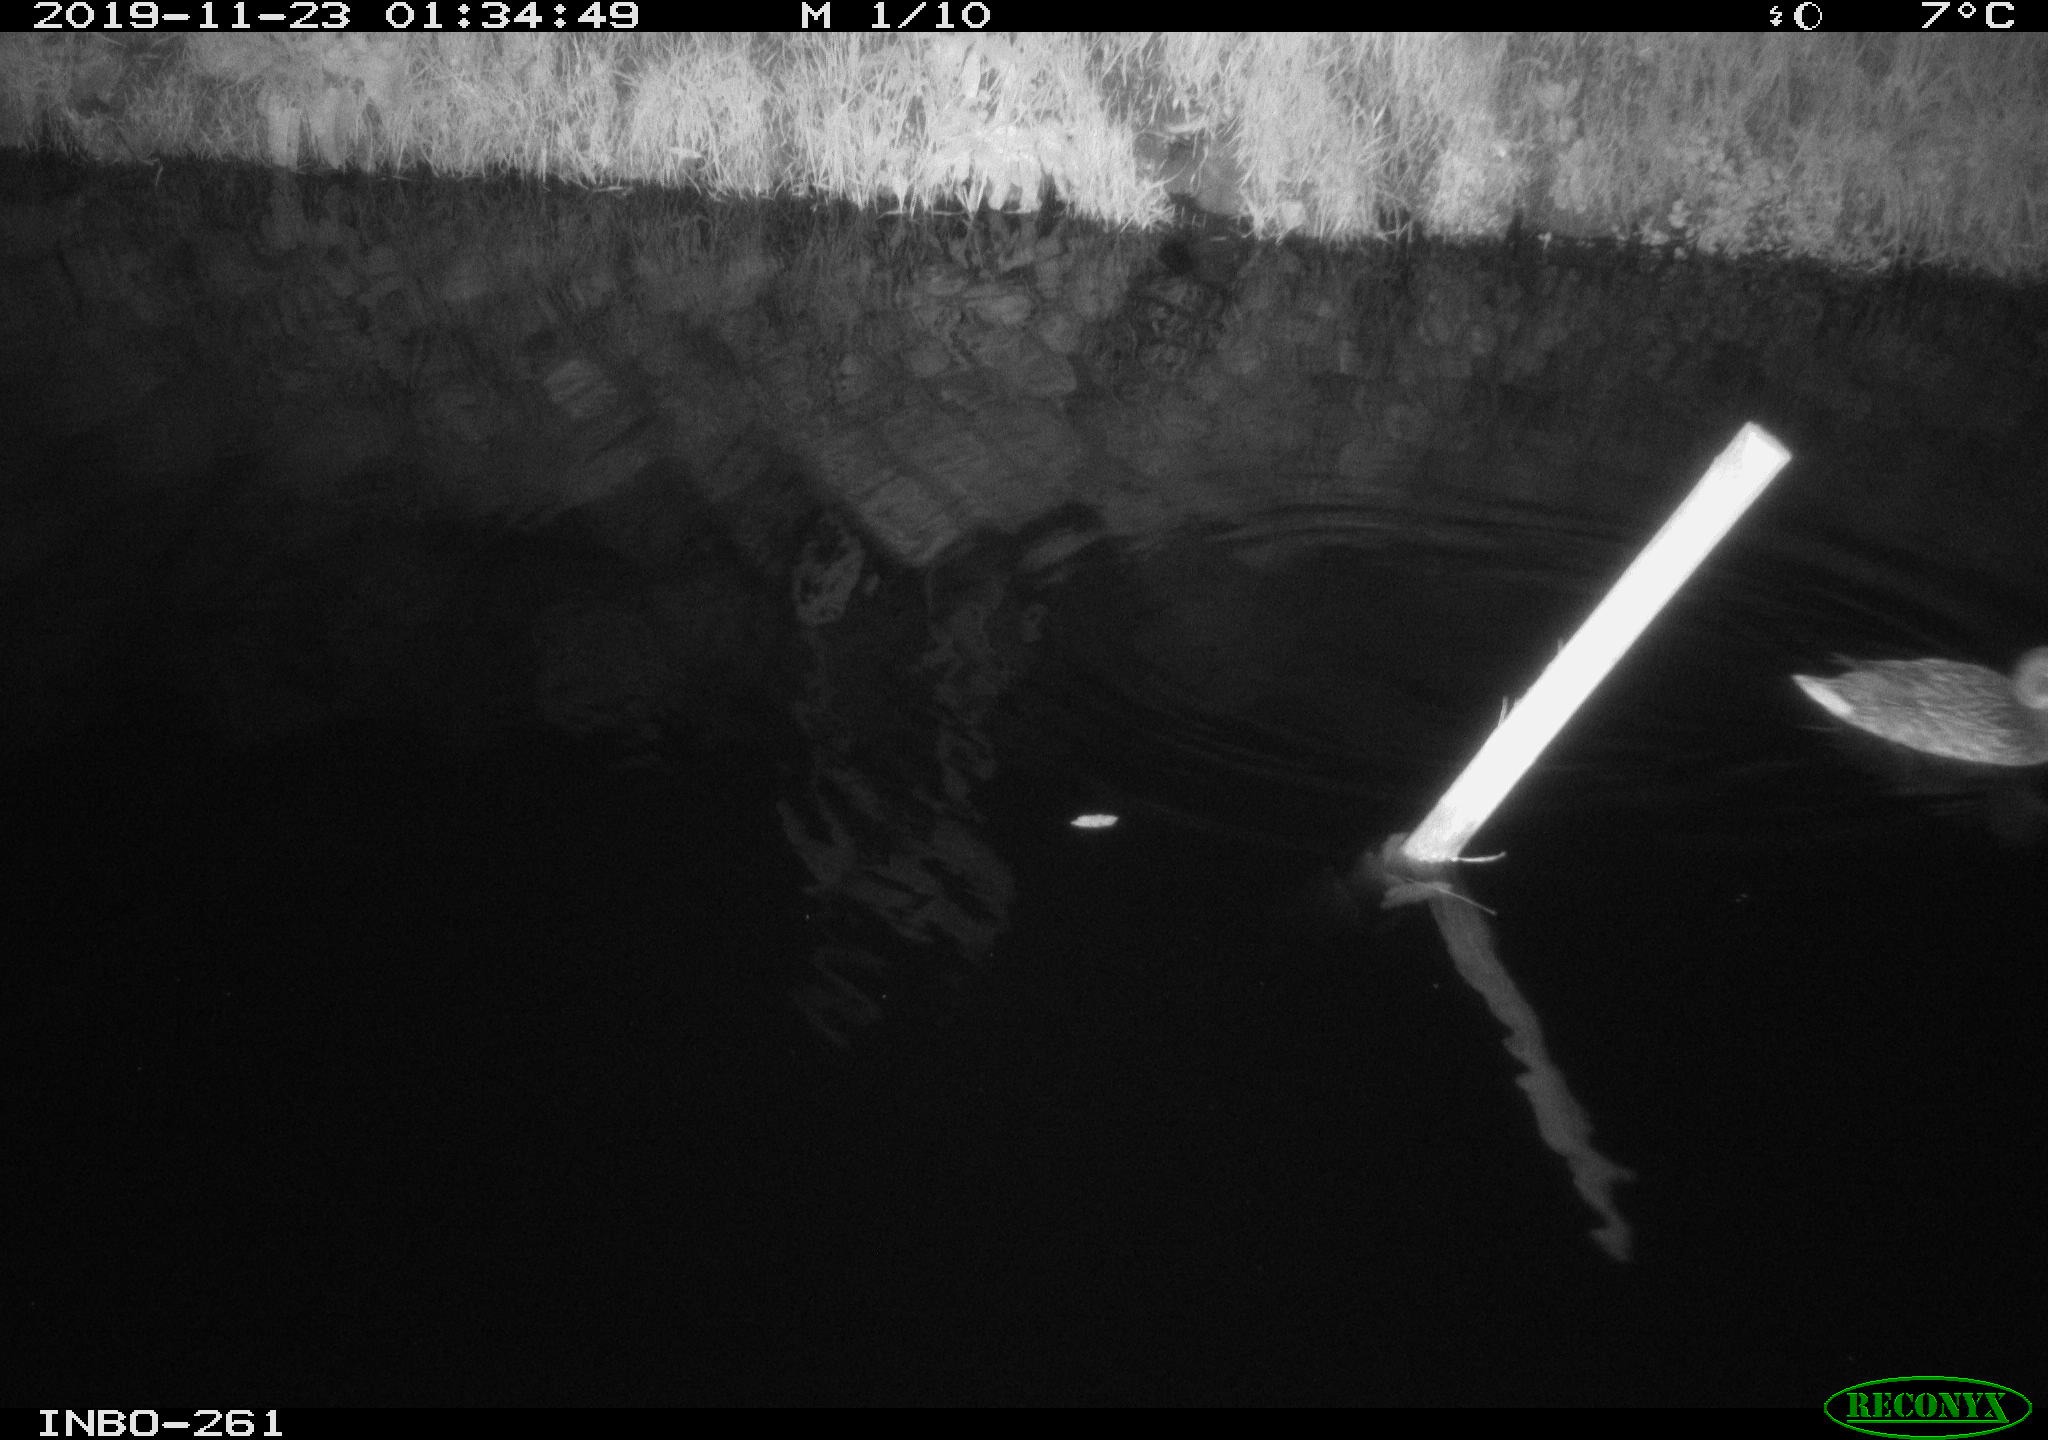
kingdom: Animalia
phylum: Chordata
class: Aves
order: Anseriformes
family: Anatidae
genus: Anas
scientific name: Anas platyrhynchos
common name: Mallard
